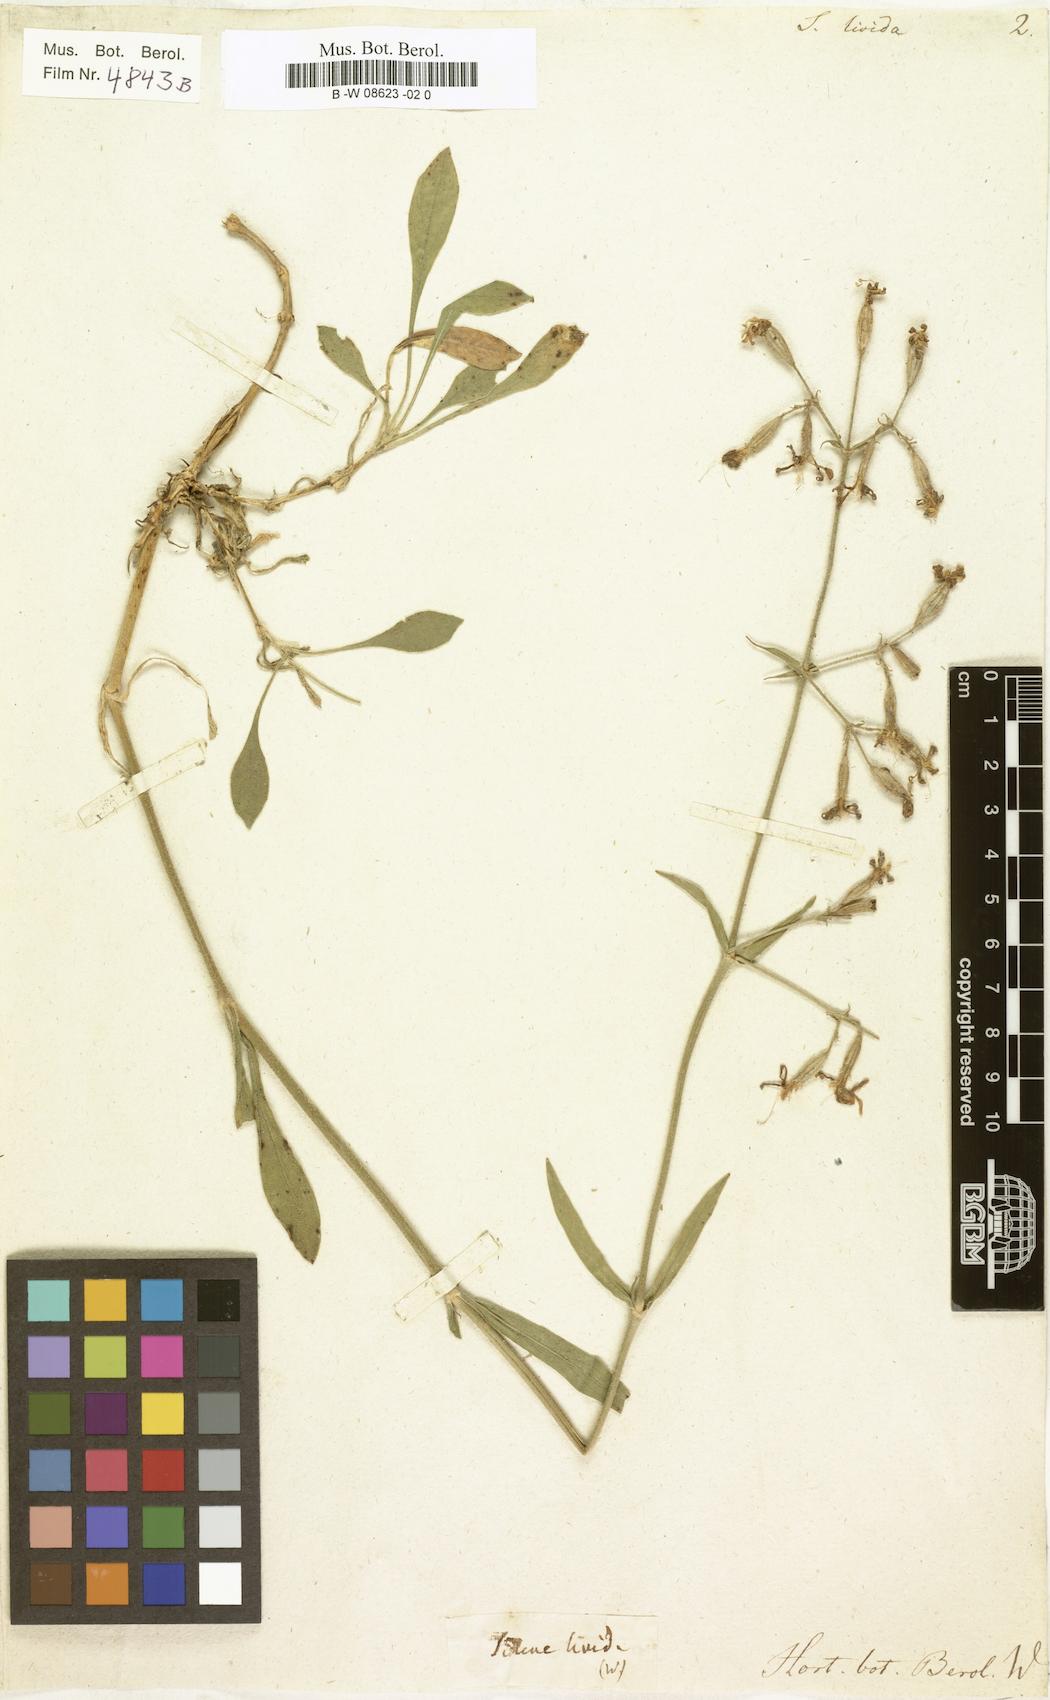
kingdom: Plantae
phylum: Tracheophyta
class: Magnoliopsida
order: Caryophyllales
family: Caryophyllaceae
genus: Silene
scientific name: Silene
